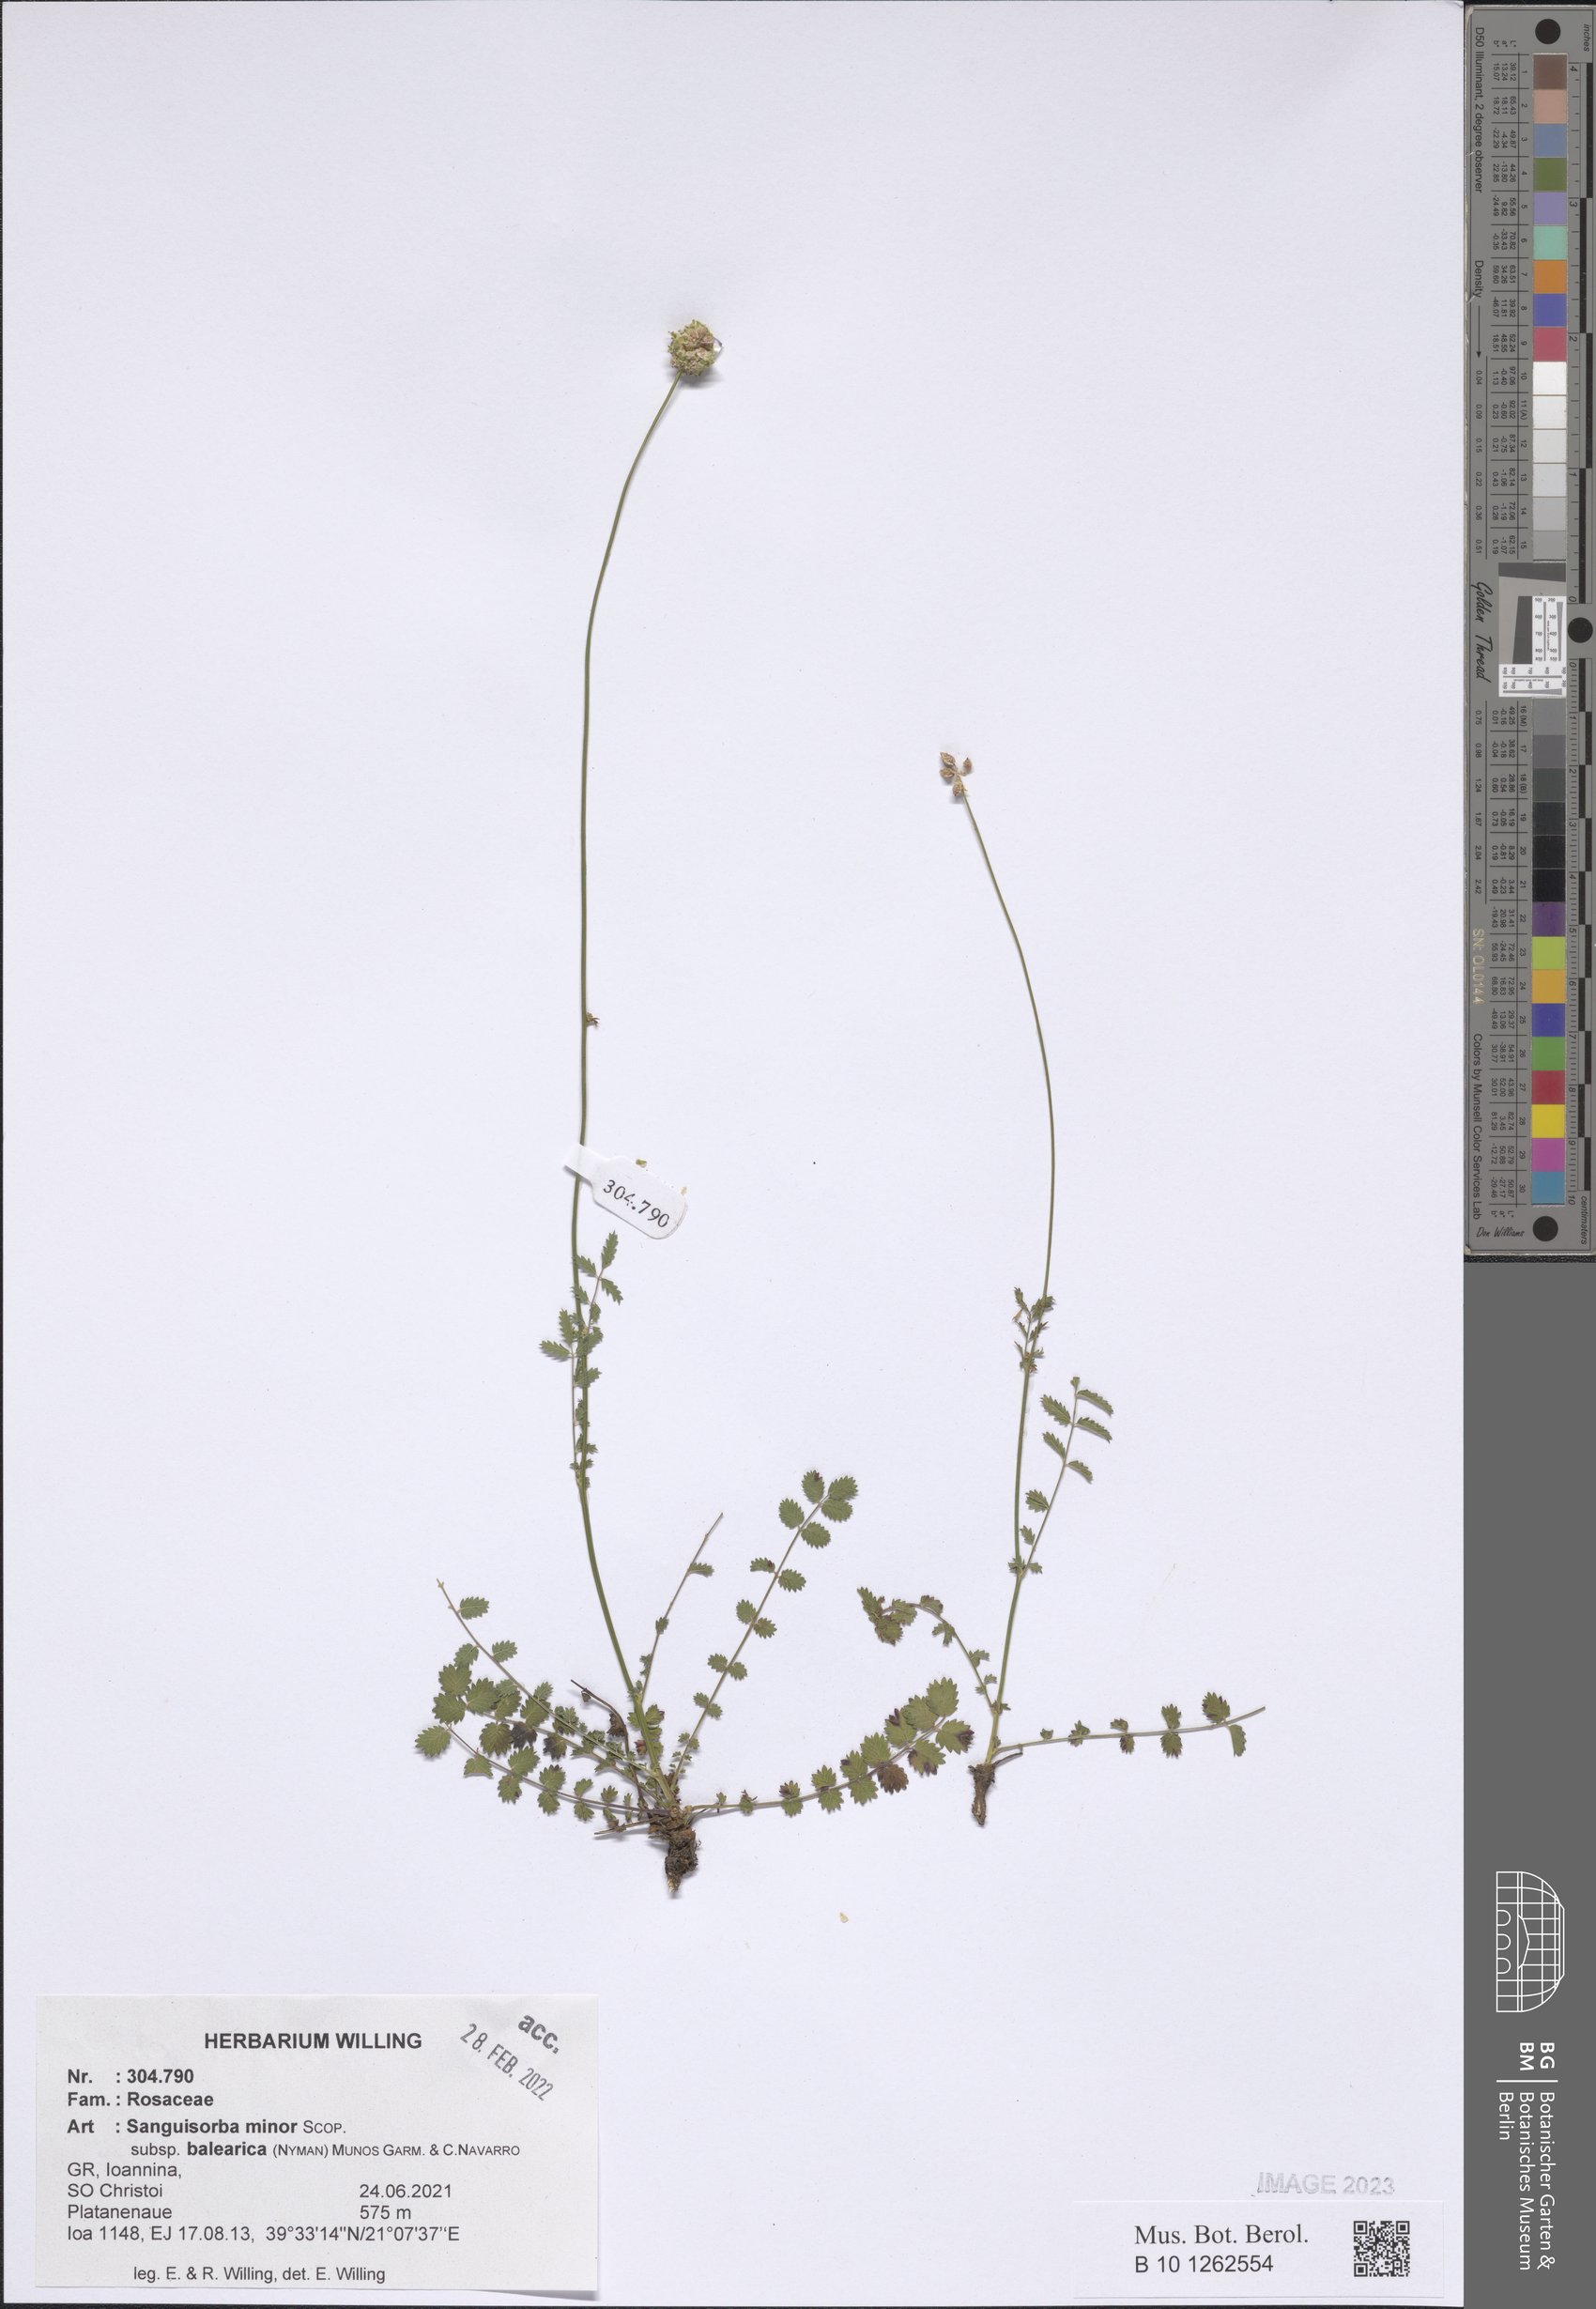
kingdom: Plantae
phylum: Tracheophyta
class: Magnoliopsida
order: Rosales
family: Rosaceae
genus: Poterium
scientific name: Poterium sanguisorba
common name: Salad burnet
